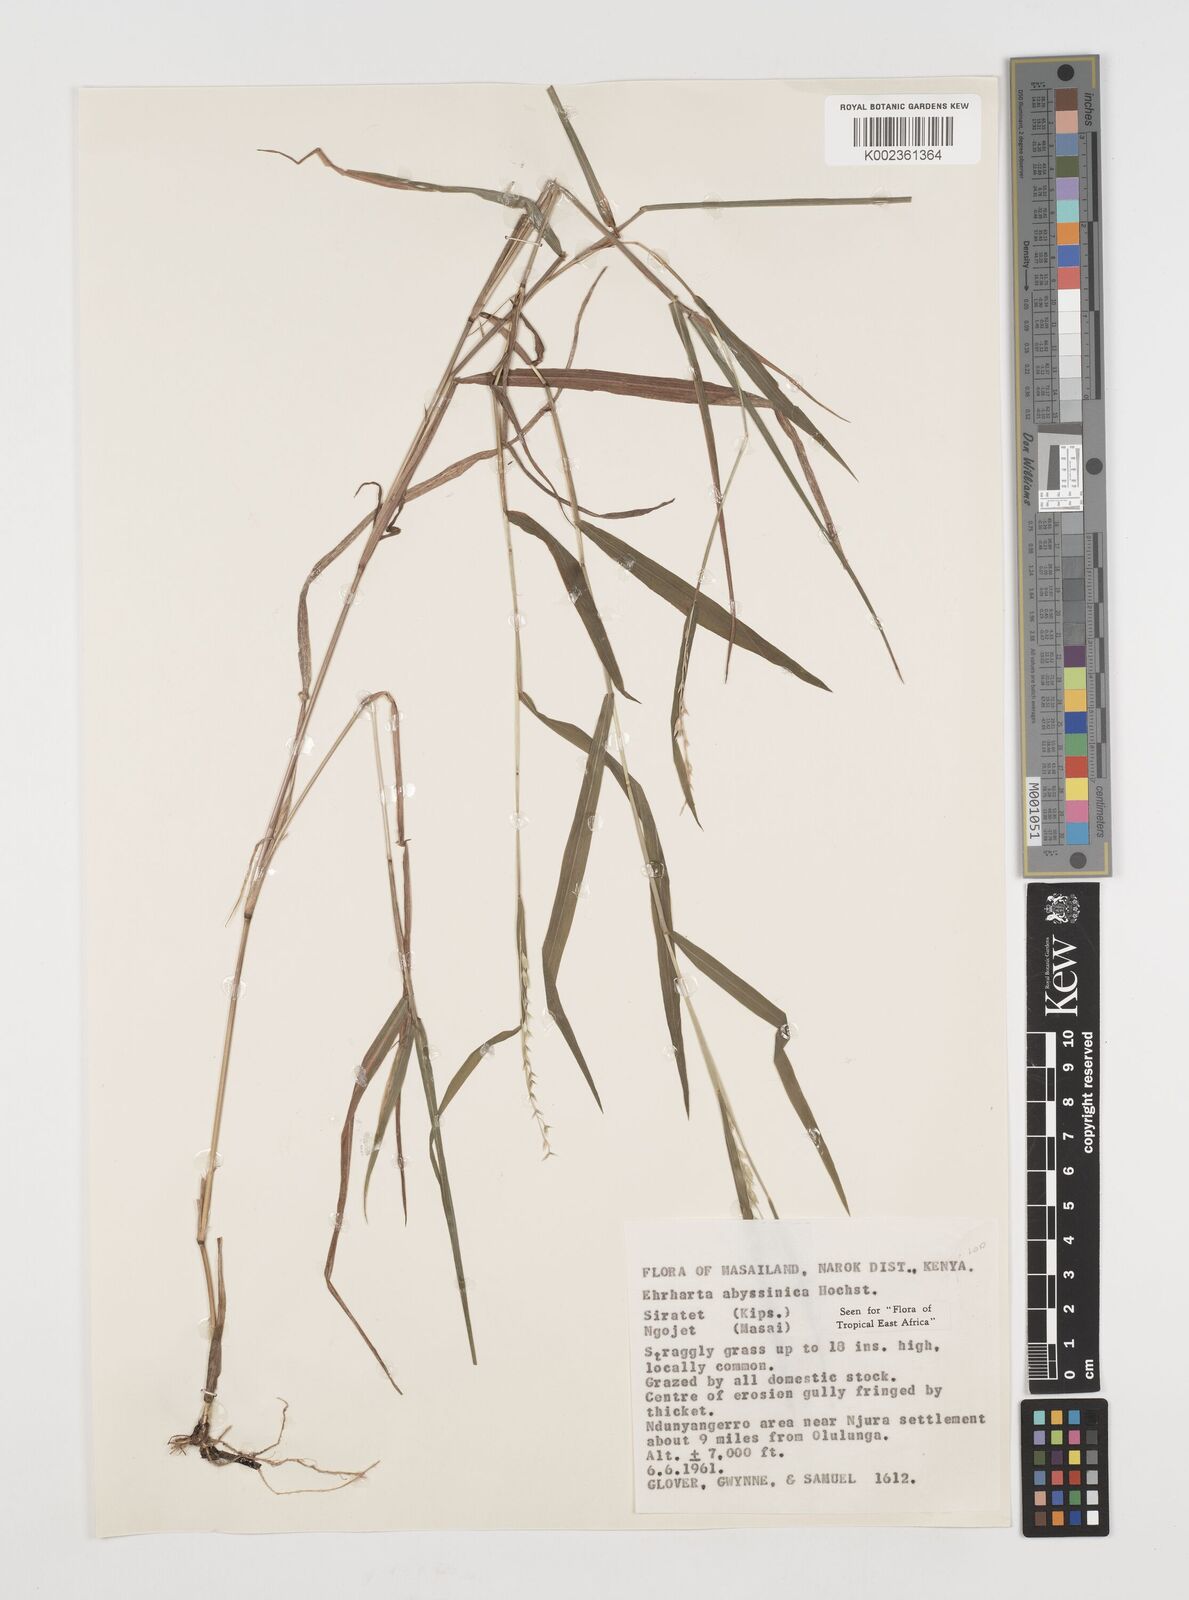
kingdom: Plantae
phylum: Tracheophyta
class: Liliopsida
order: Poales
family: Poaceae
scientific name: Poaceae
